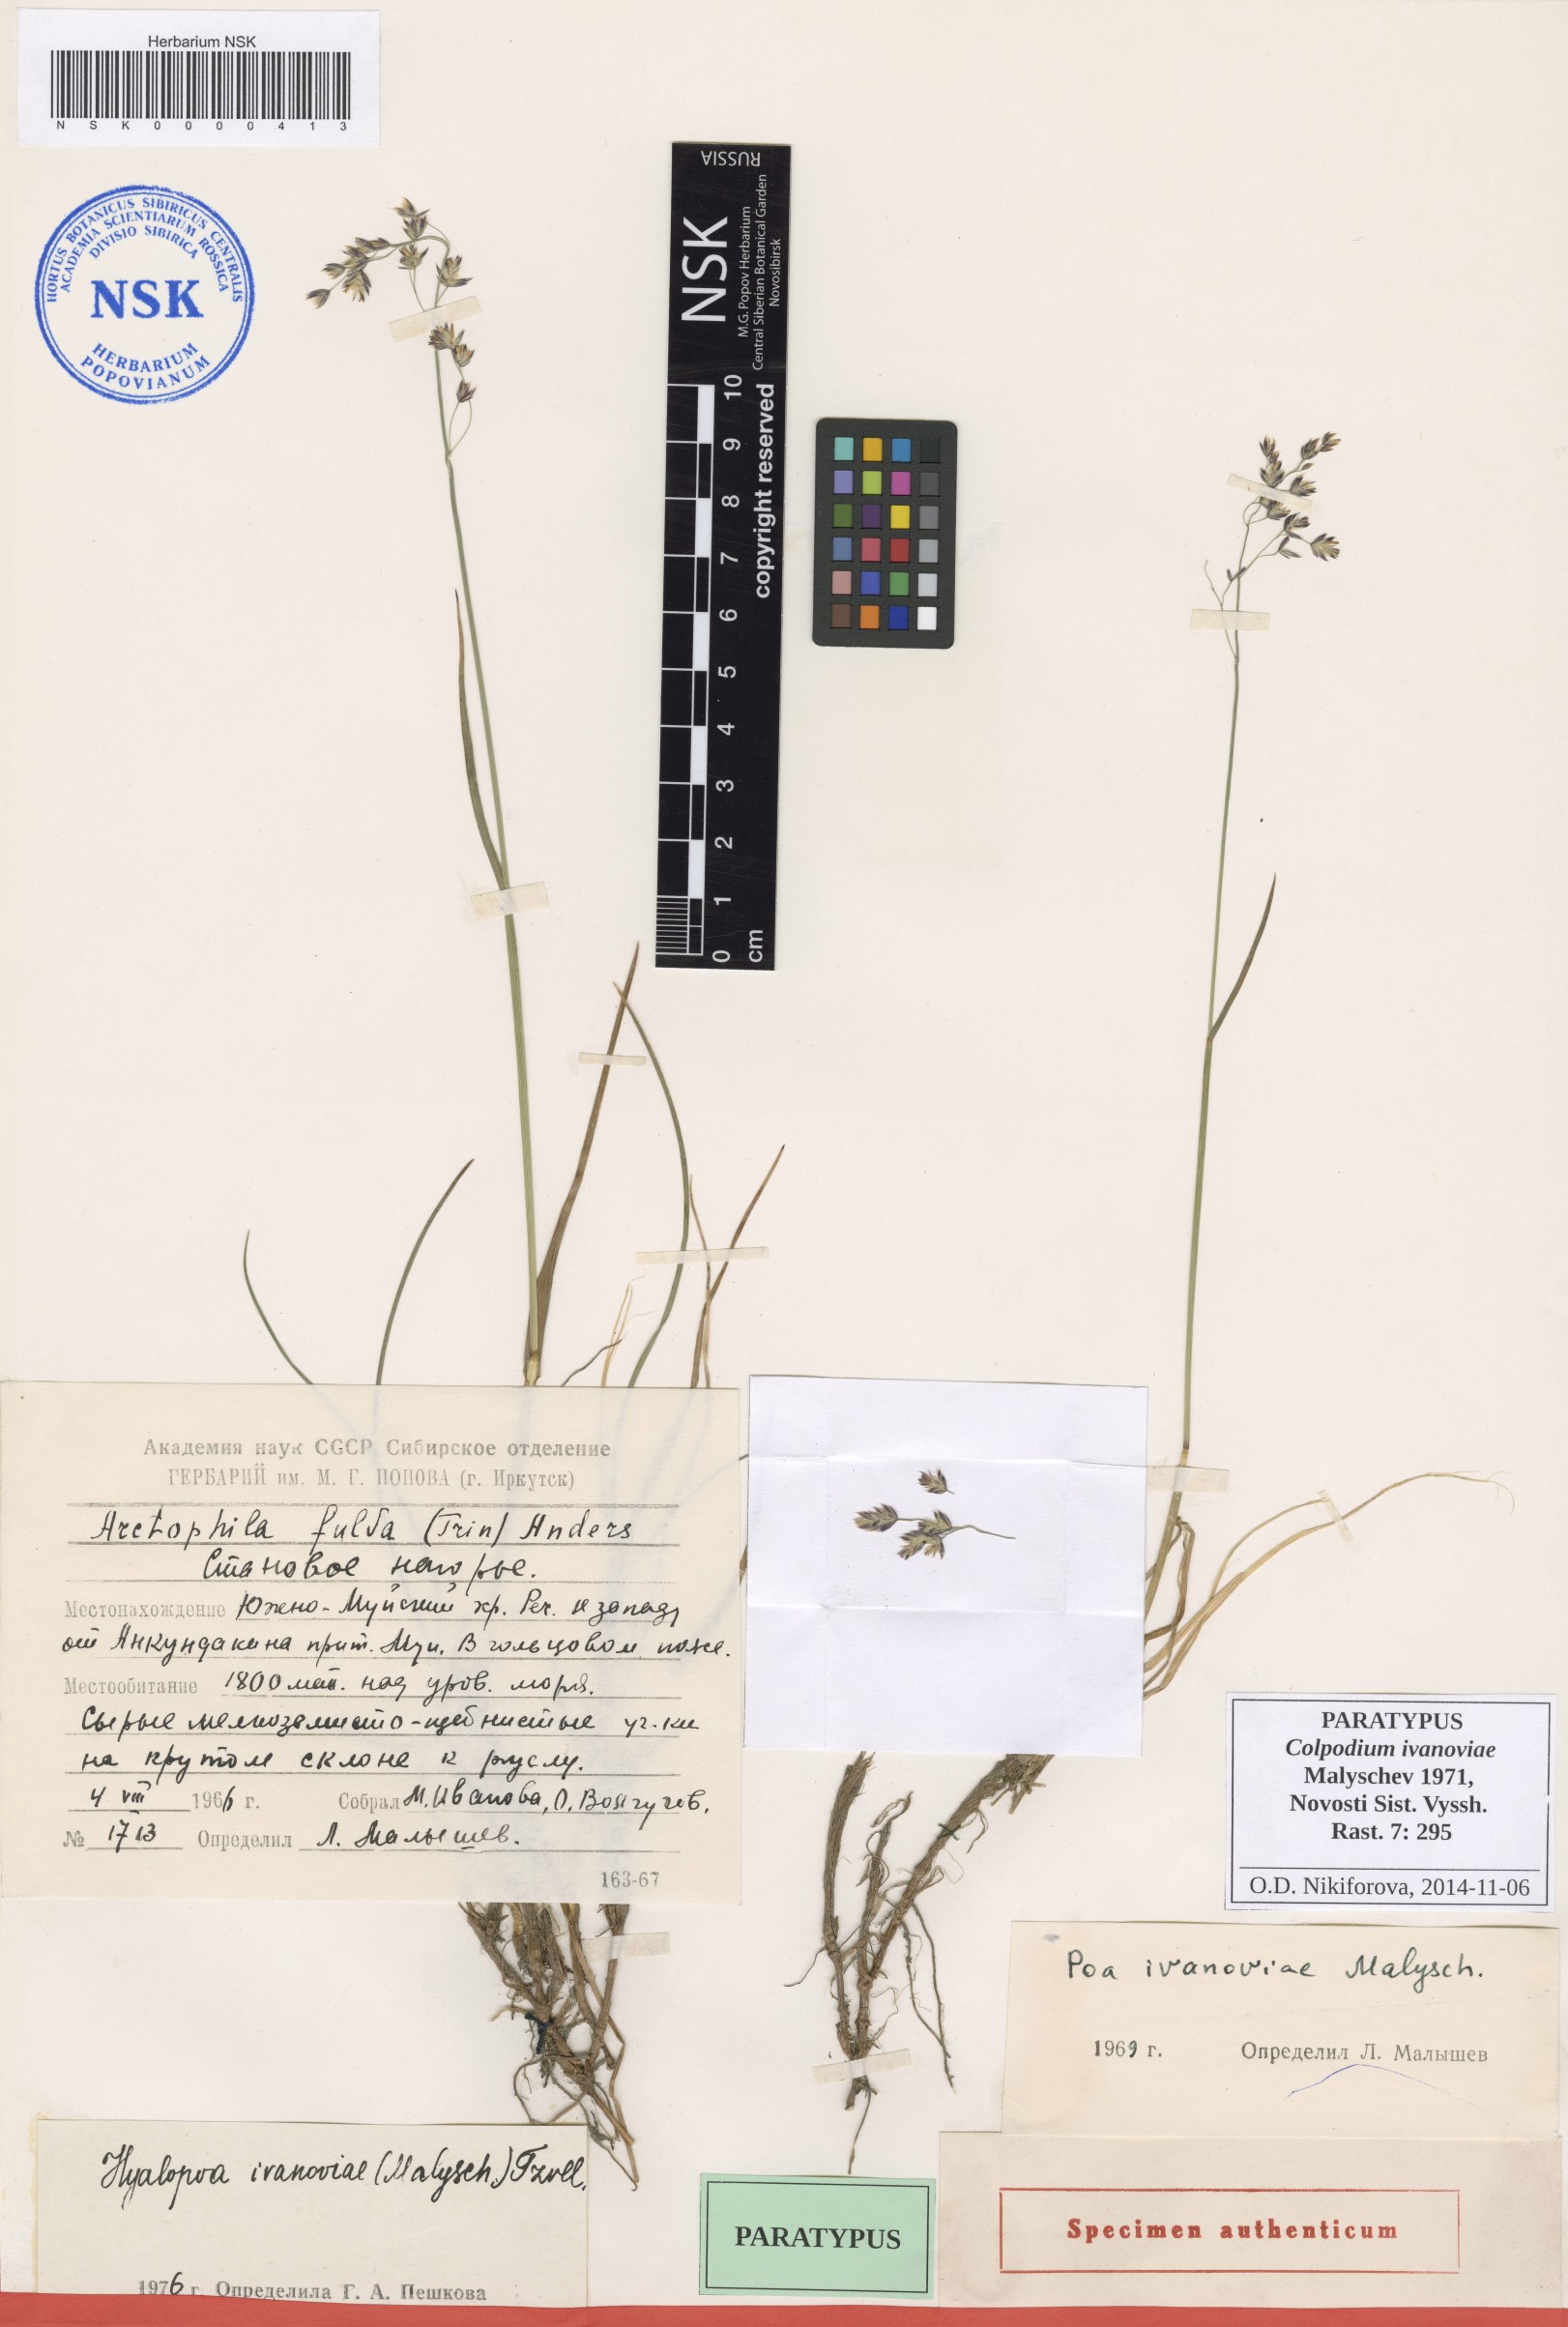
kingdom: Plantae
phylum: Tracheophyta
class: Liliopsida
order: Poales
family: Poaceae
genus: Arctohyalopoa
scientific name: Arctohyalopoa lanatiflora
